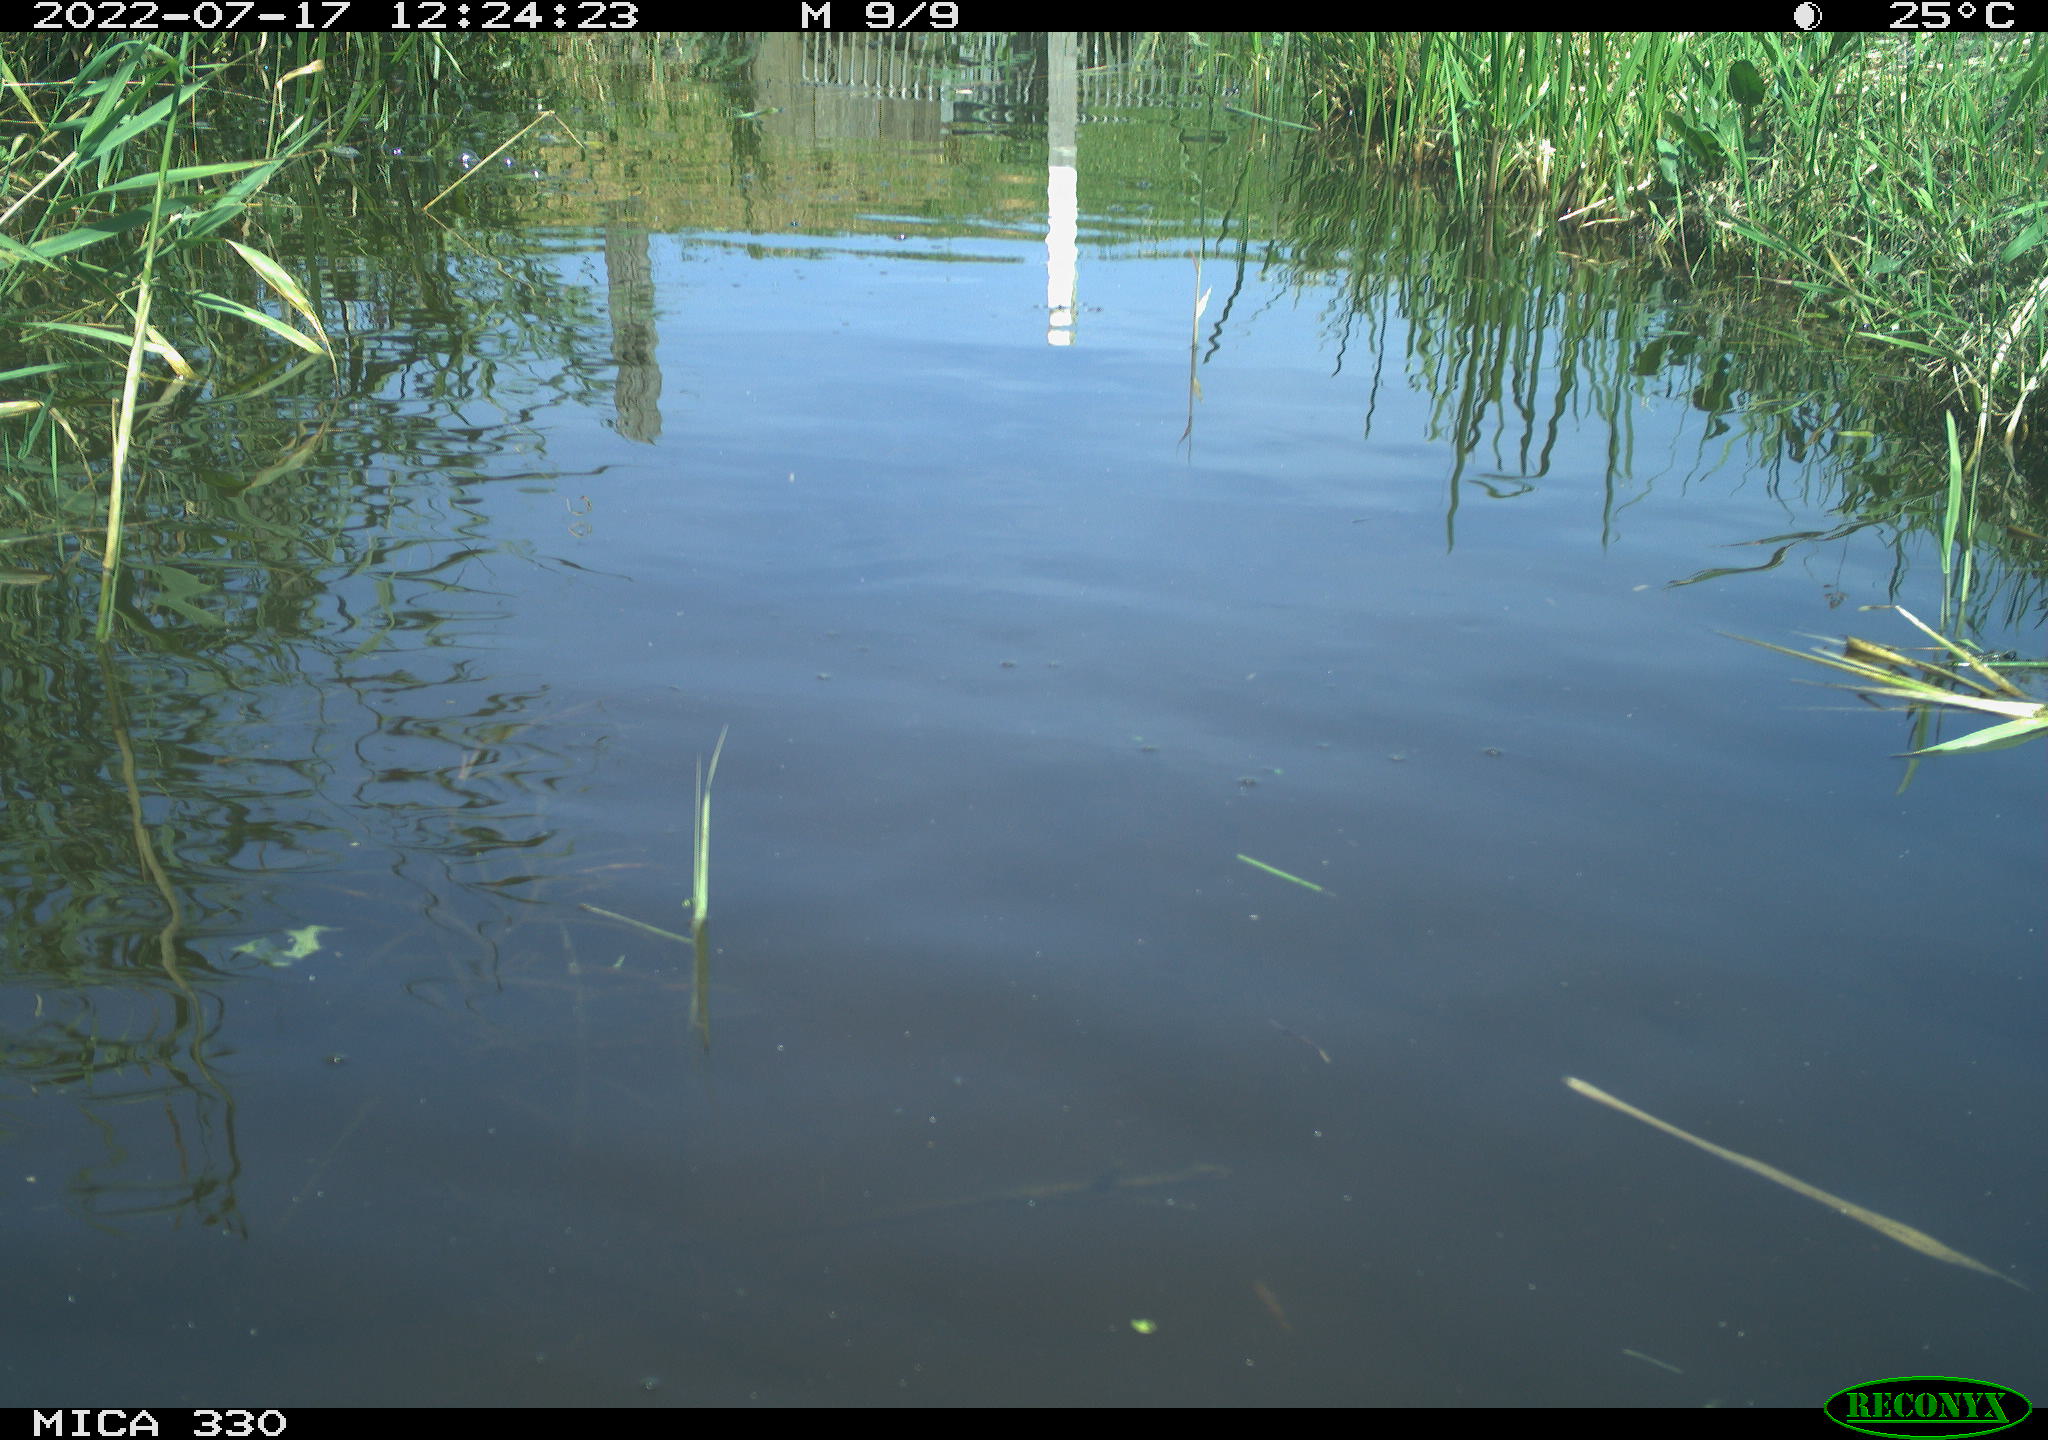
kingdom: Animalia
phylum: Chordata
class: Aves
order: Anseriformes
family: Anatidae
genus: Anas
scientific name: Anas platyrhynchos
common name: Mallard
